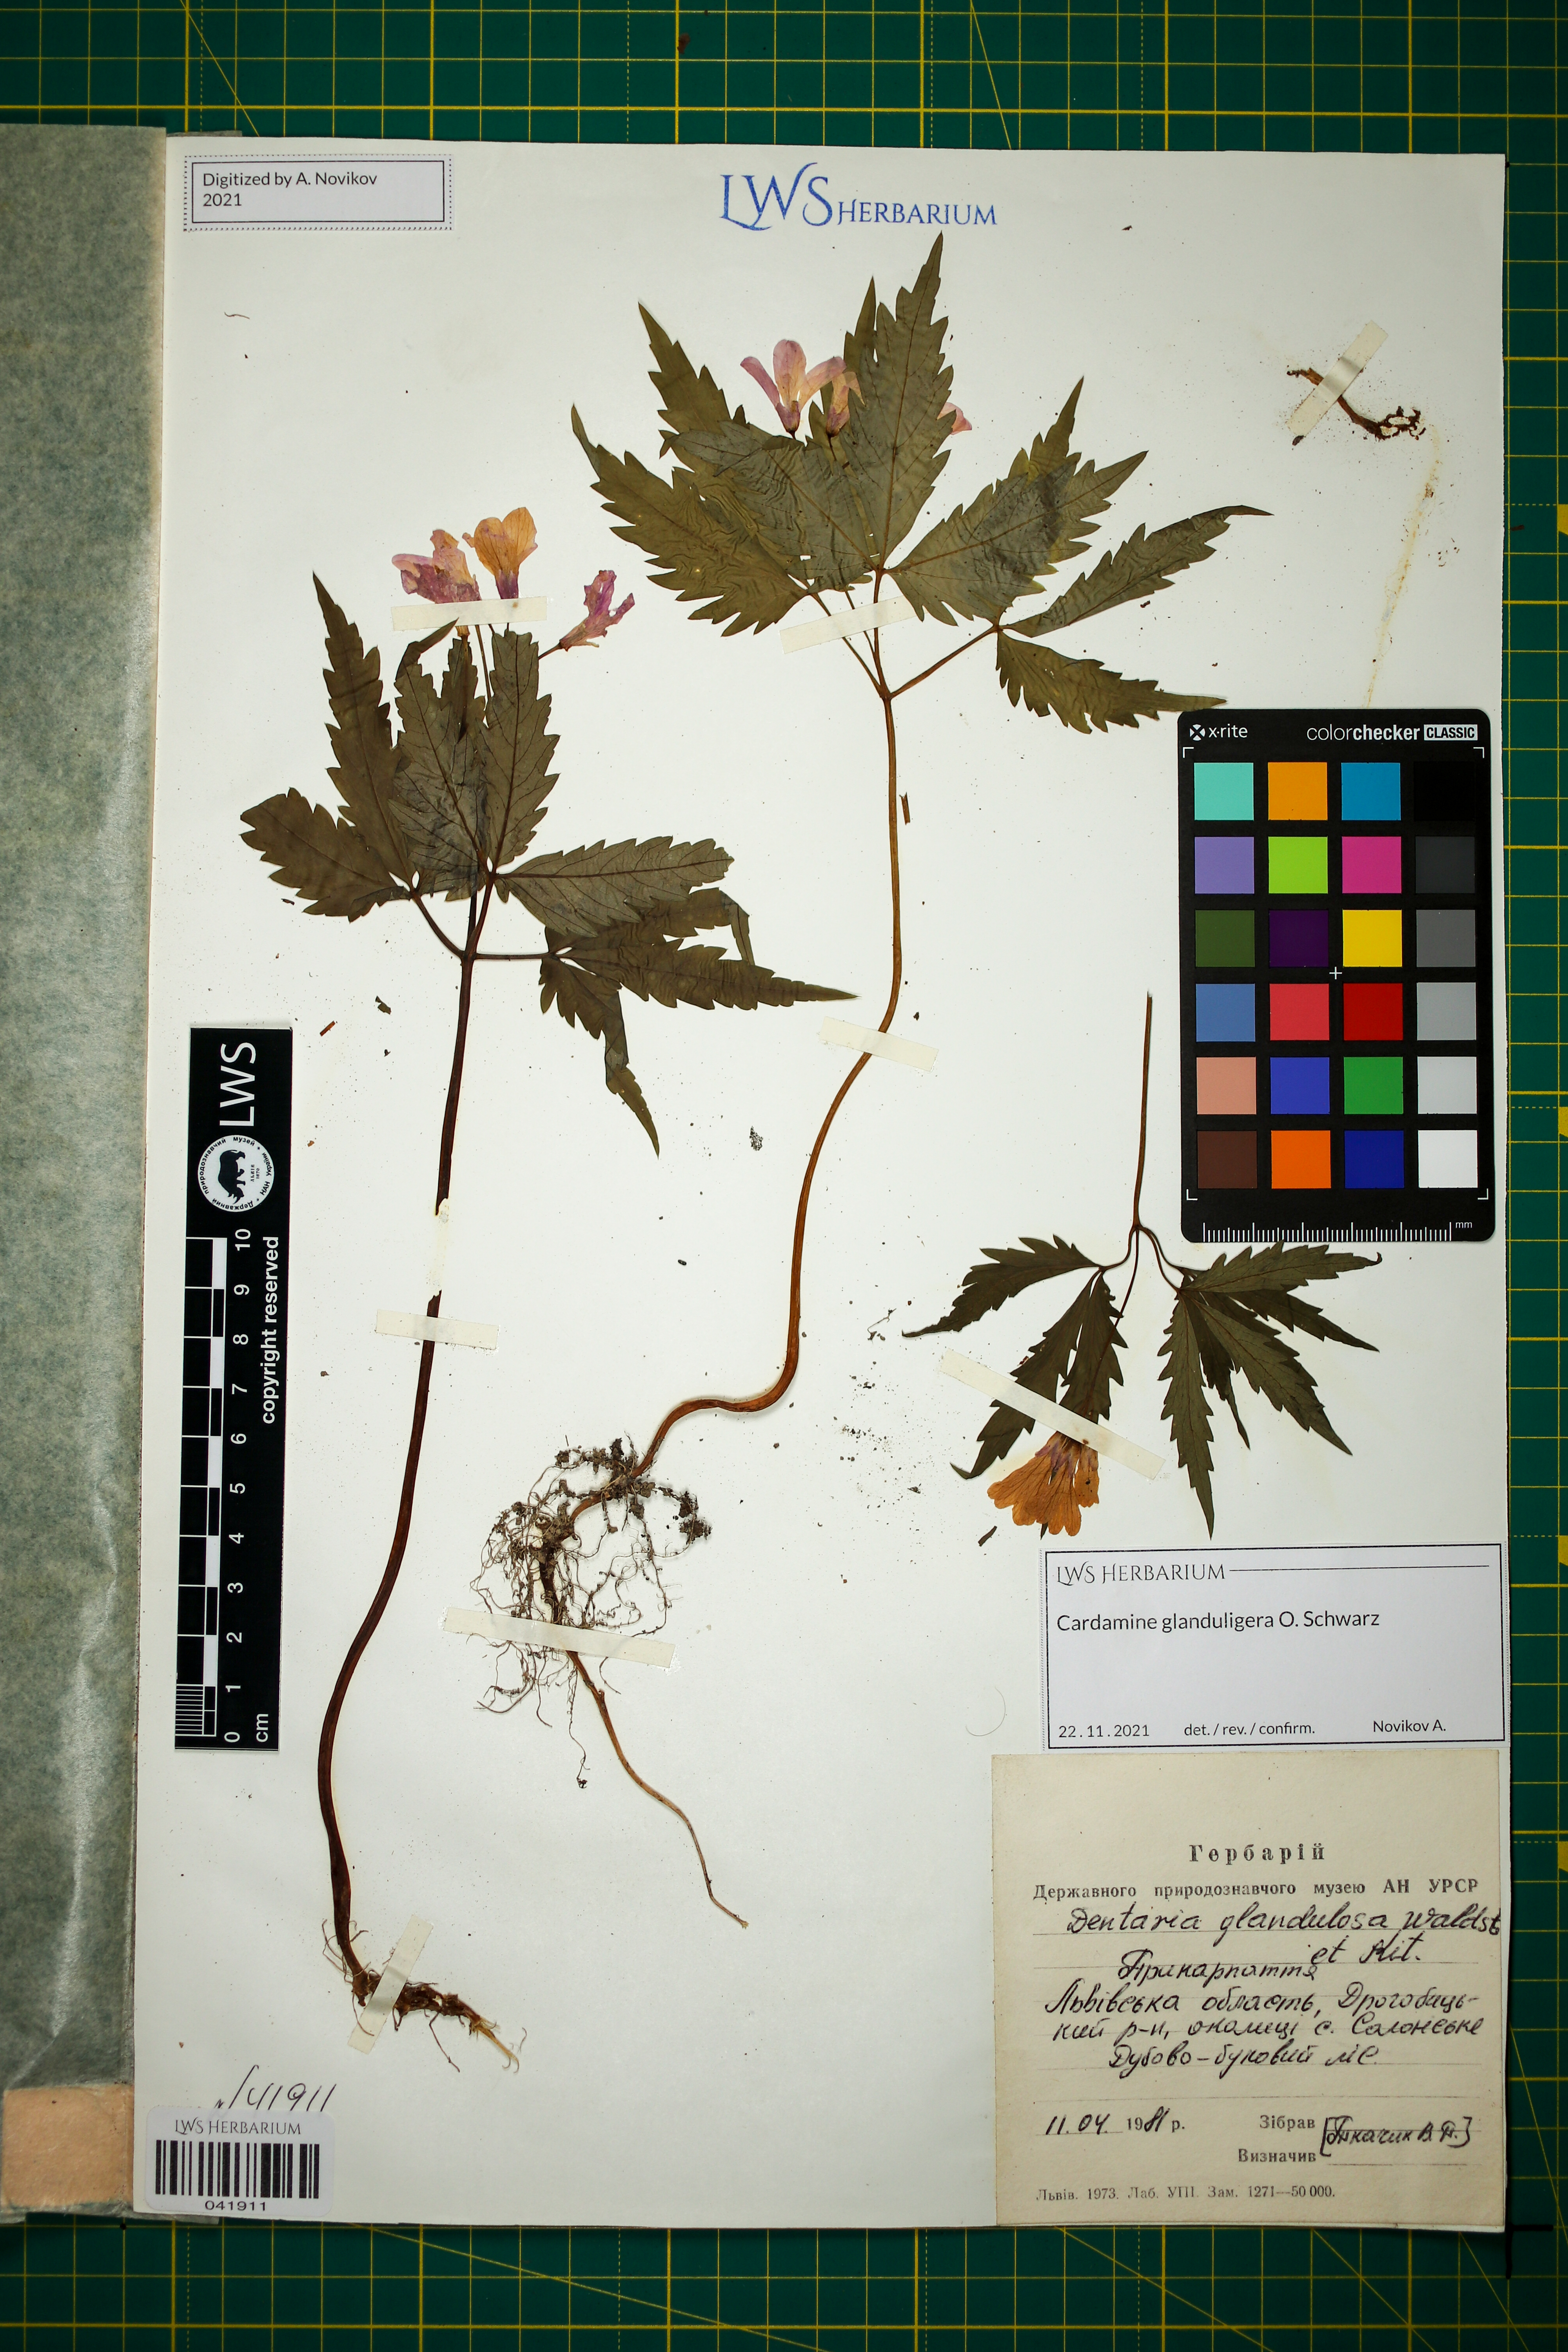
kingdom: Plantae
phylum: Tracheophyta
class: Magnoliopsida
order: Brassicales
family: Brassicaceae
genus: Cardamine
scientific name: Cardamine glanduligera
